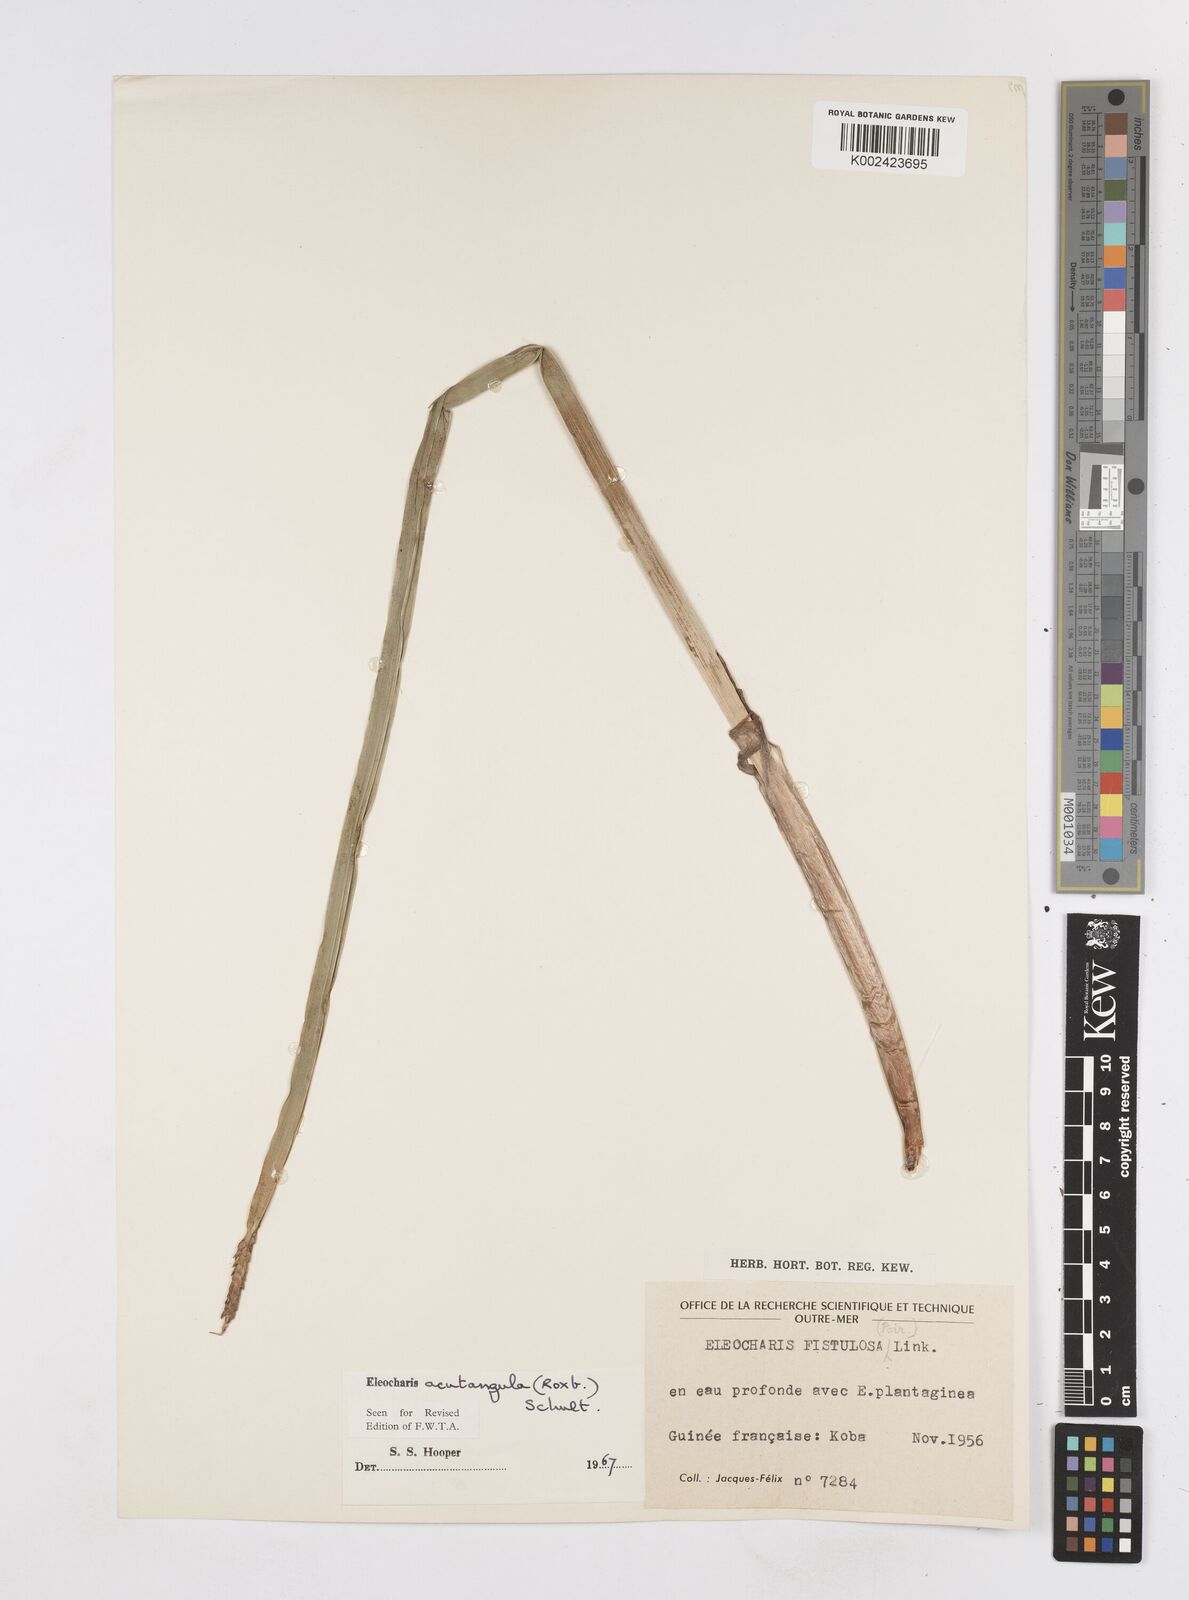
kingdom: Plantae
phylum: Tracheophyta
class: Liliopsida
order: Poales
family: Cyperaceae
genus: Eleocharis
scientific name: Eleocharis acutangula
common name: Acute spikerush
